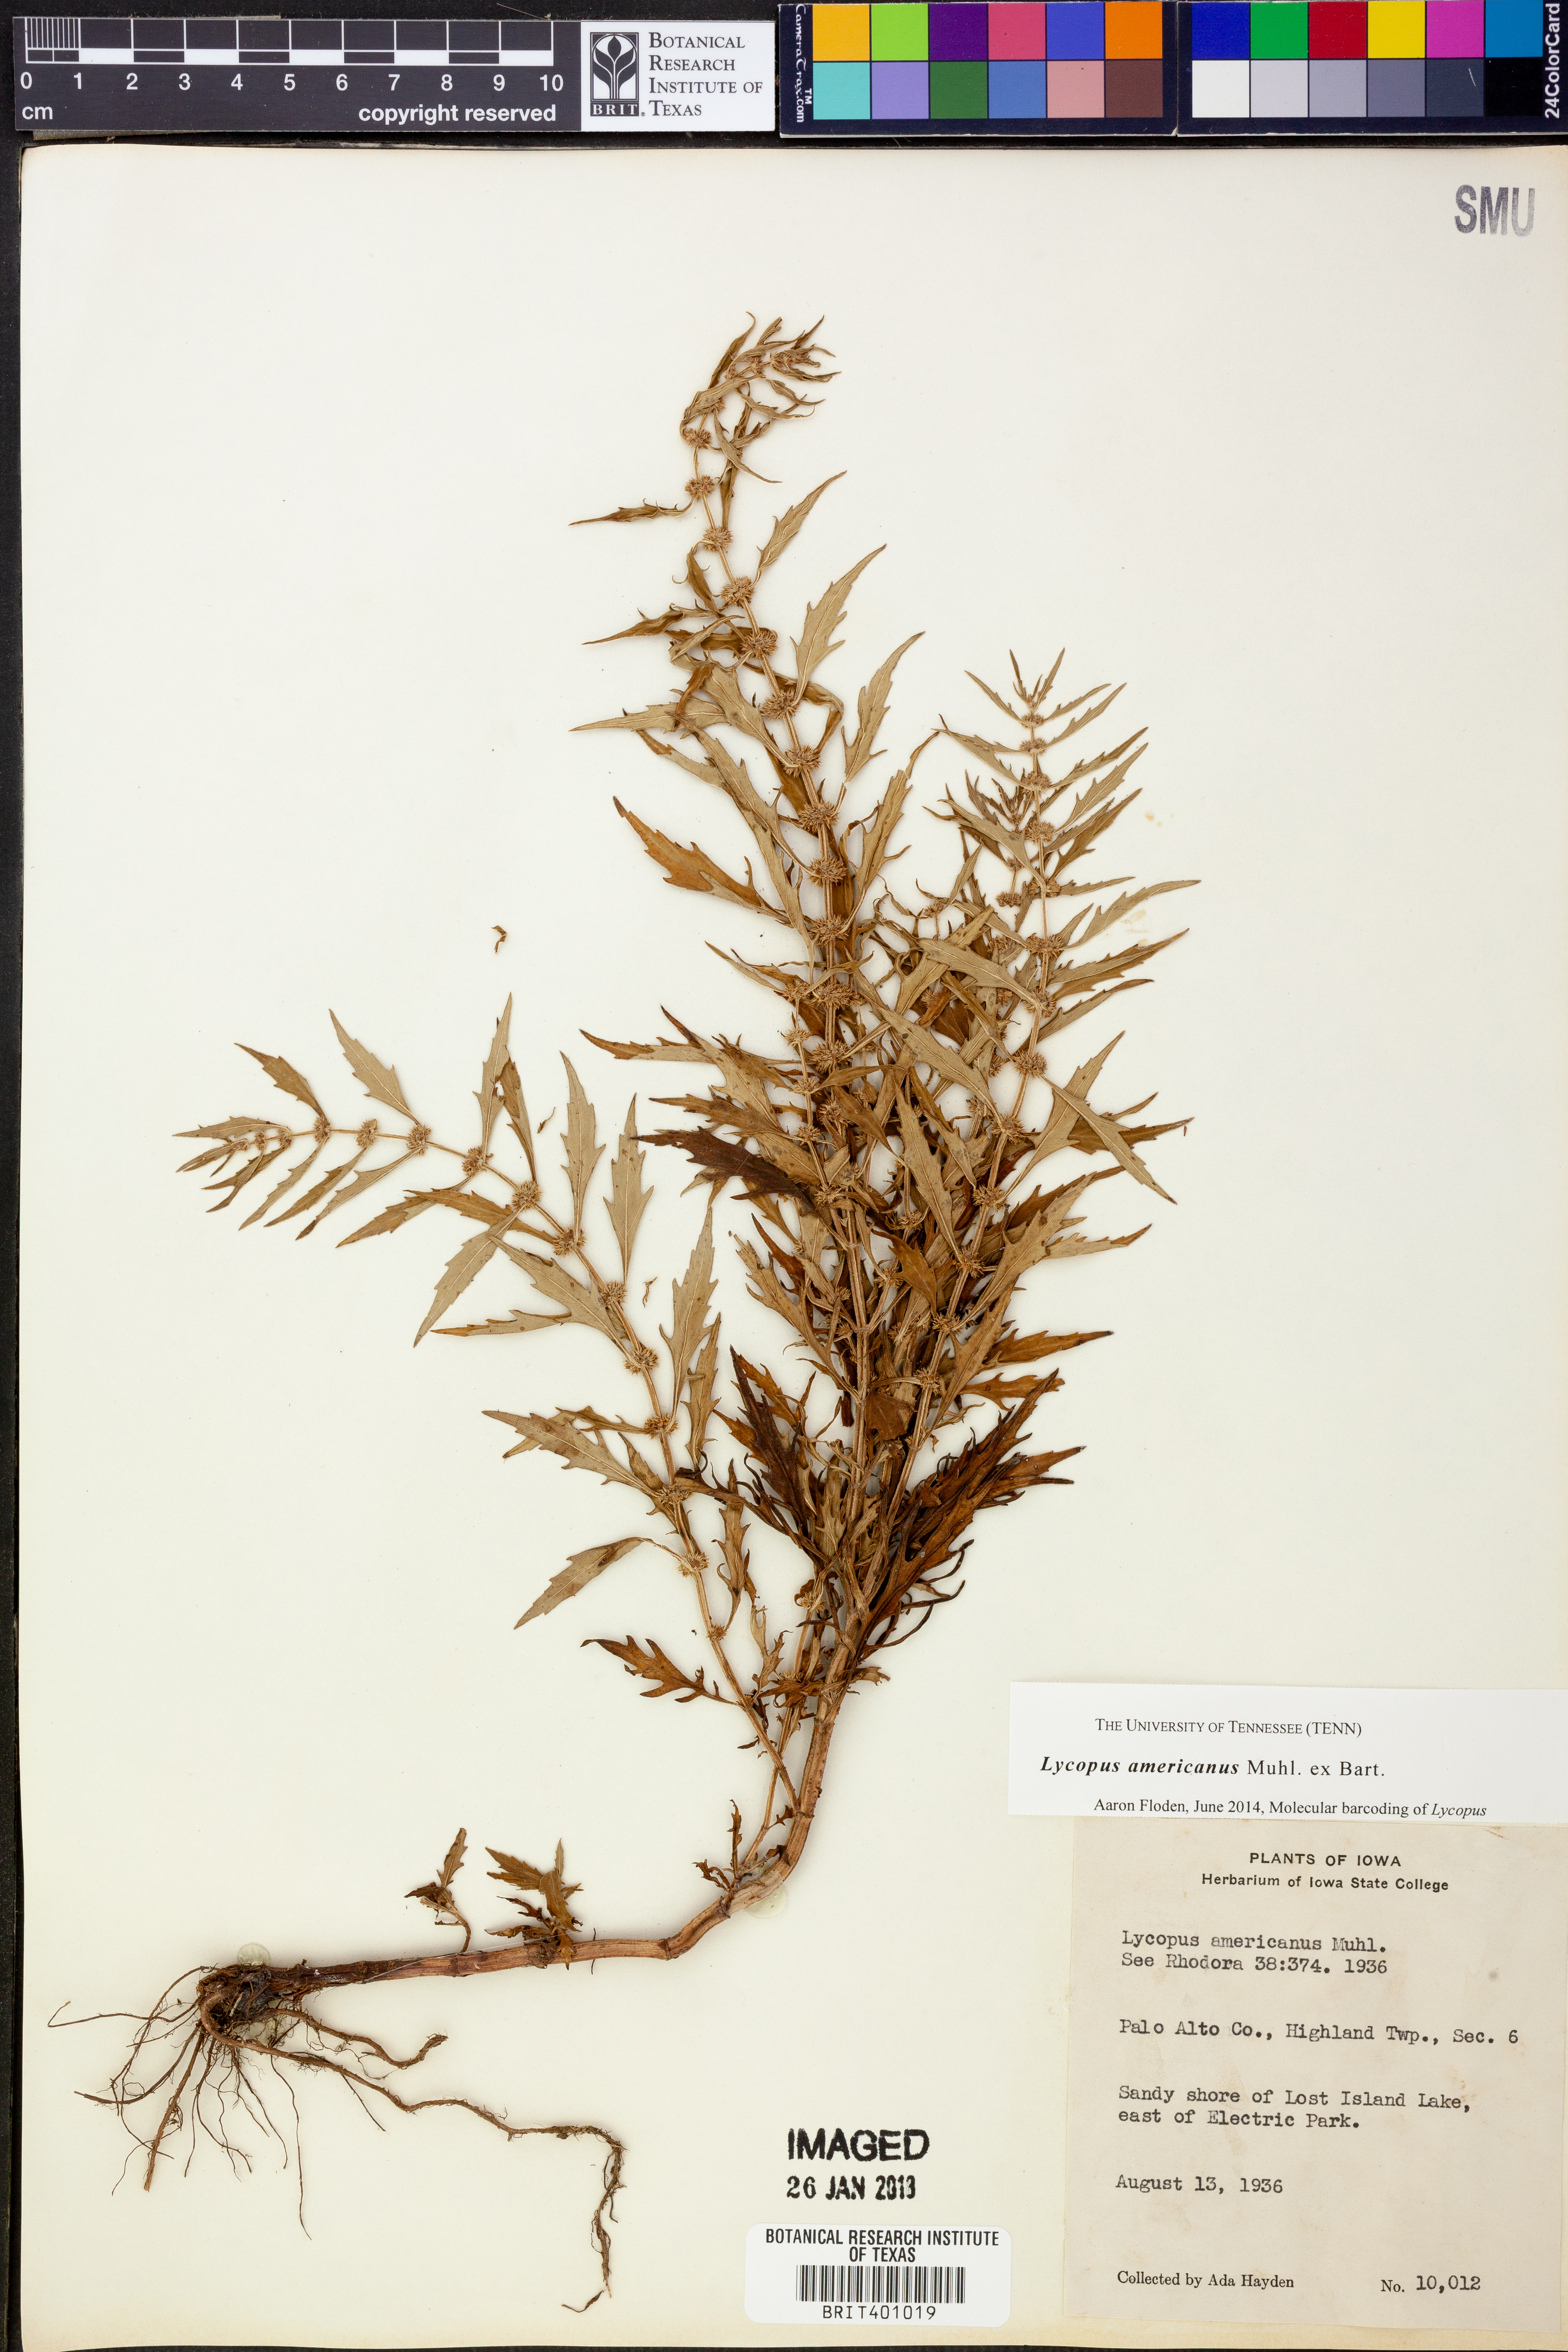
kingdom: Plantae
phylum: Tracheophyta
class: Magnoliopsida
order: Lamiales
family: Lamiaceae
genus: Lycopus
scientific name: Lycopus americanus
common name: American bugleweed
